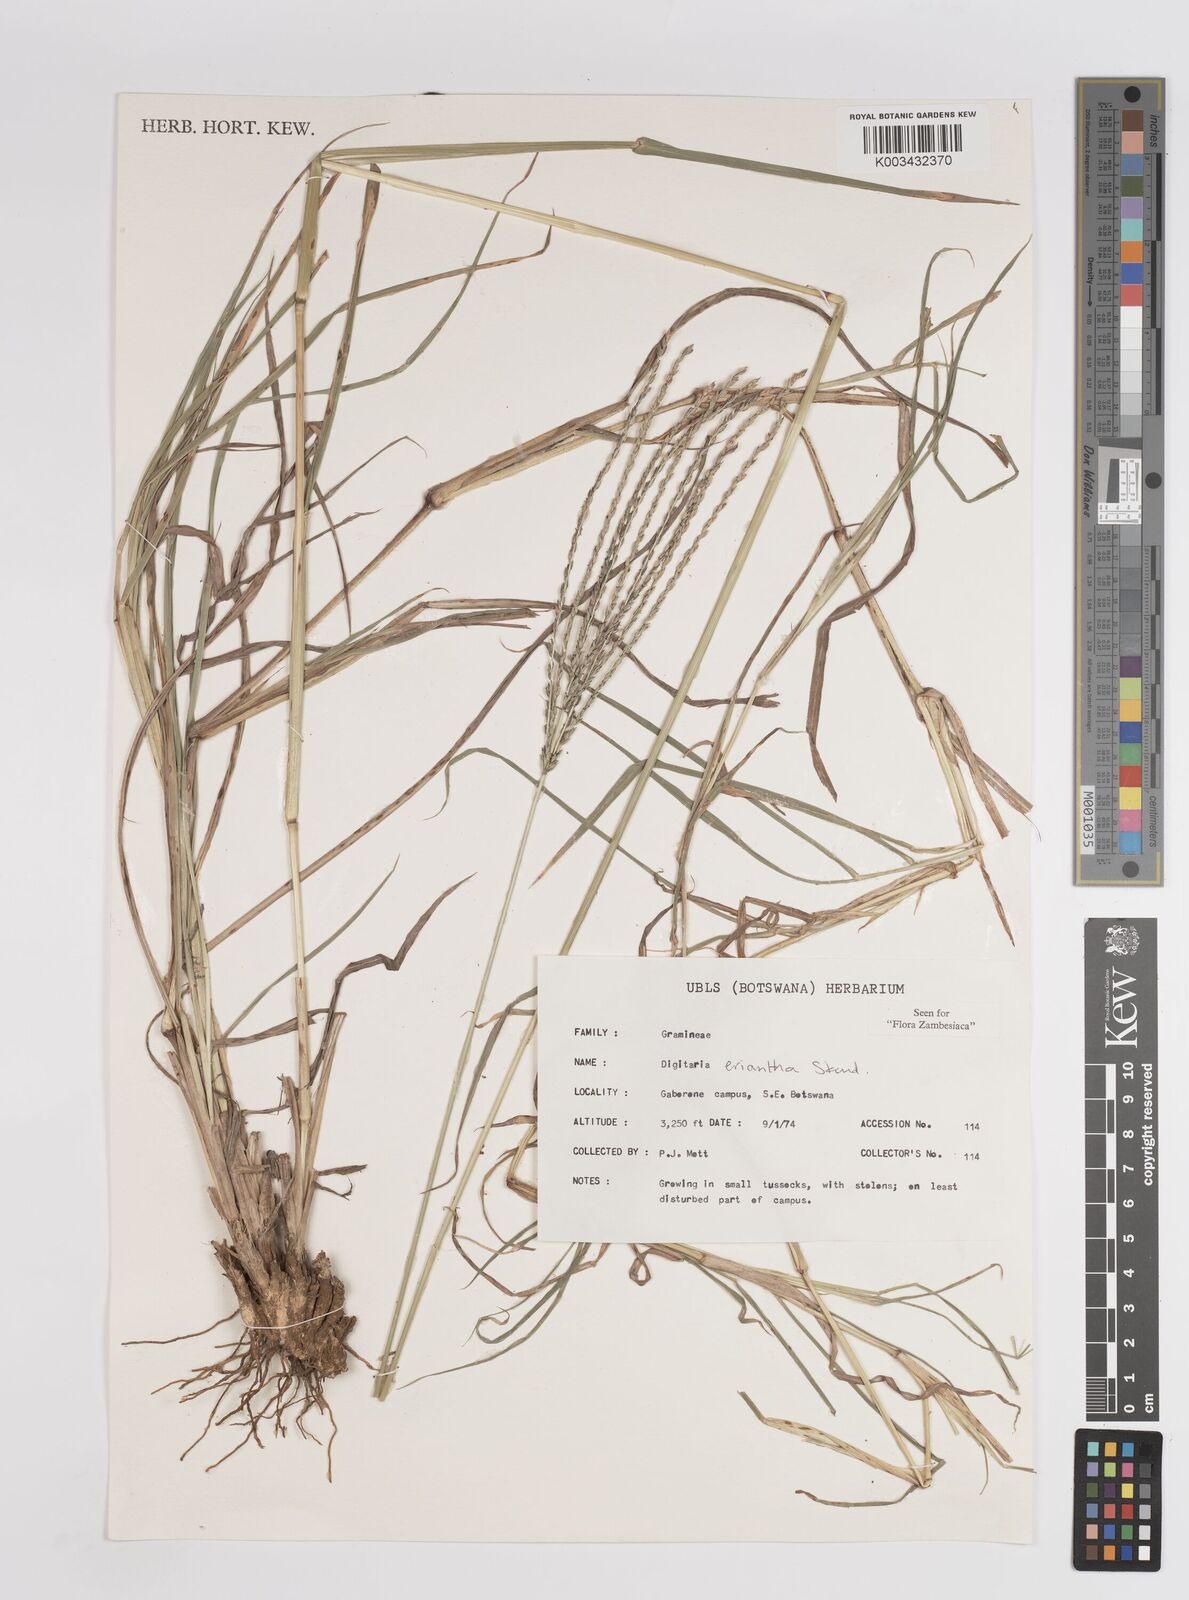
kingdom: Plantae
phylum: Tracheophyta
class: Liliopsida
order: Poales
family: Poaceae
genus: Digitaria
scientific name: Digitaria eriantha
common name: Digitgrass
